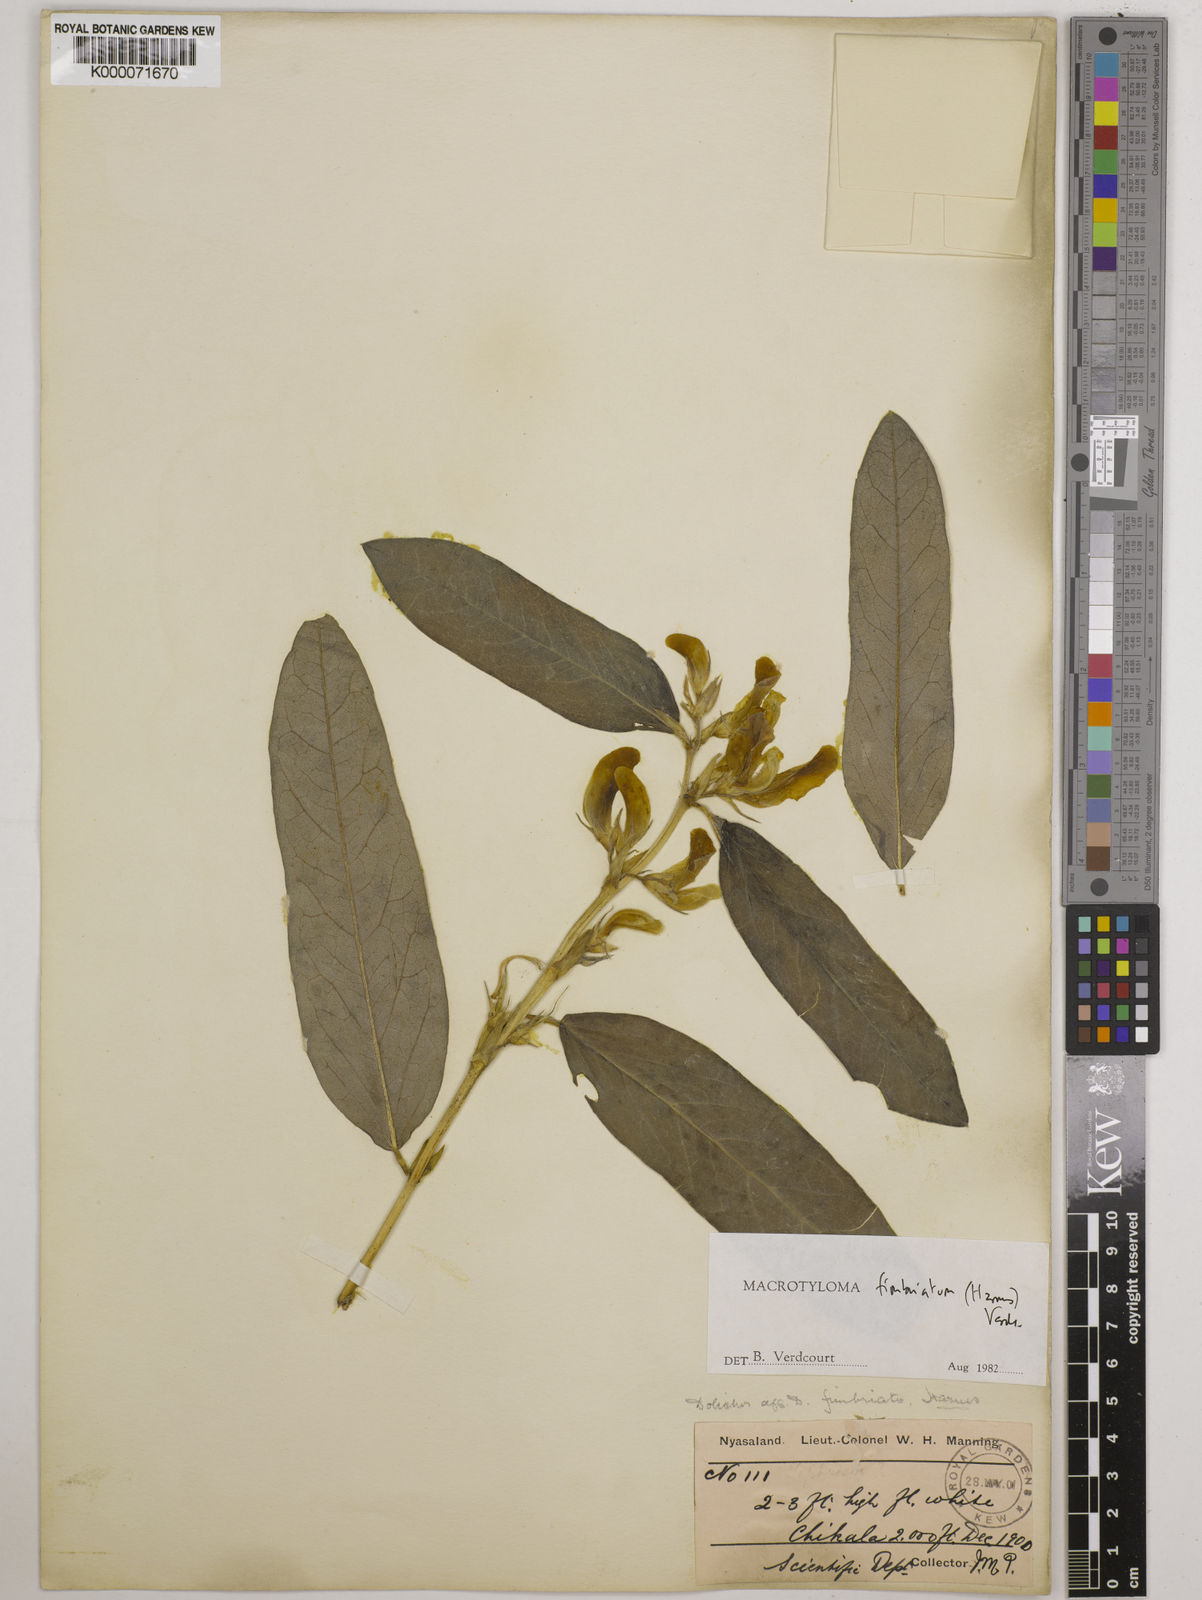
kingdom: Plantae
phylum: Tracheophyta
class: Magnoliopsida
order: Fabales
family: Fabaceae
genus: Macrotyloma
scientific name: Macrotyloma fimbriatum
